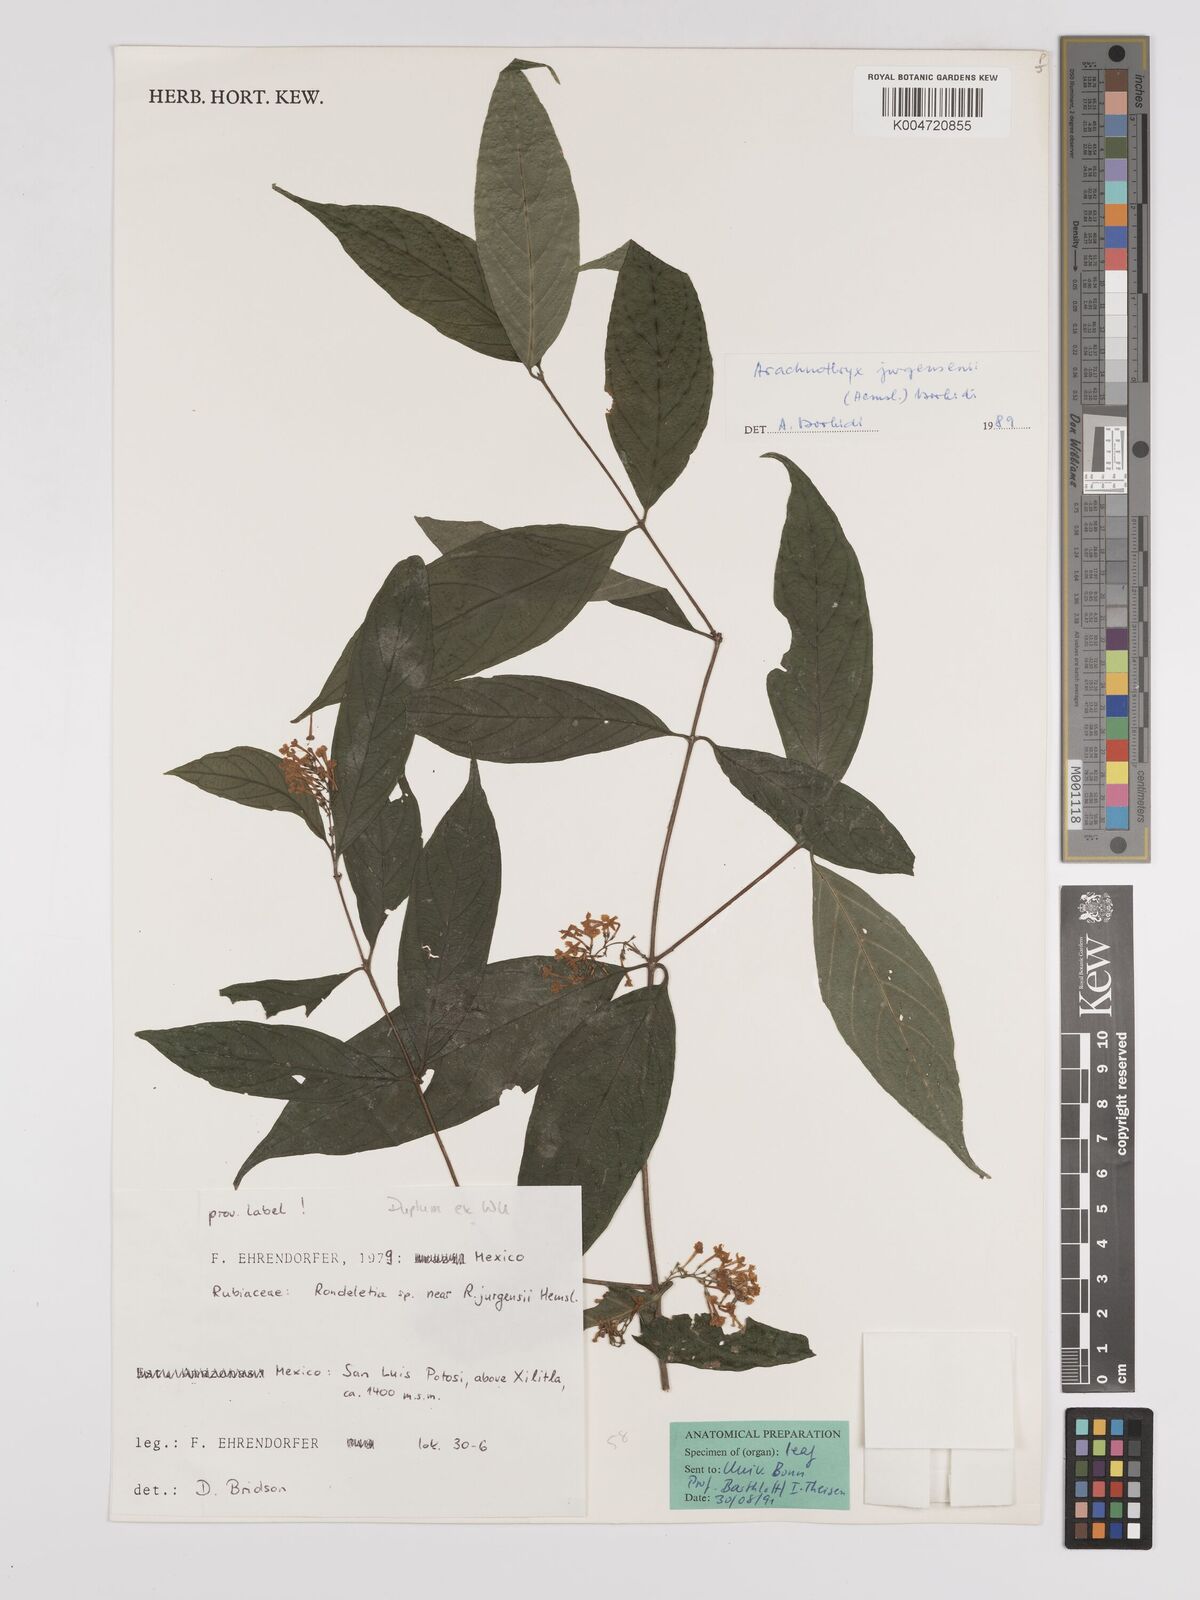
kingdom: Plantae
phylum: Tracheophyta
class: Magnoliopsida
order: Gentianales
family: Rubiaceae
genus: Arachnothryx
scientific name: Arachnothryx jurgensenii
